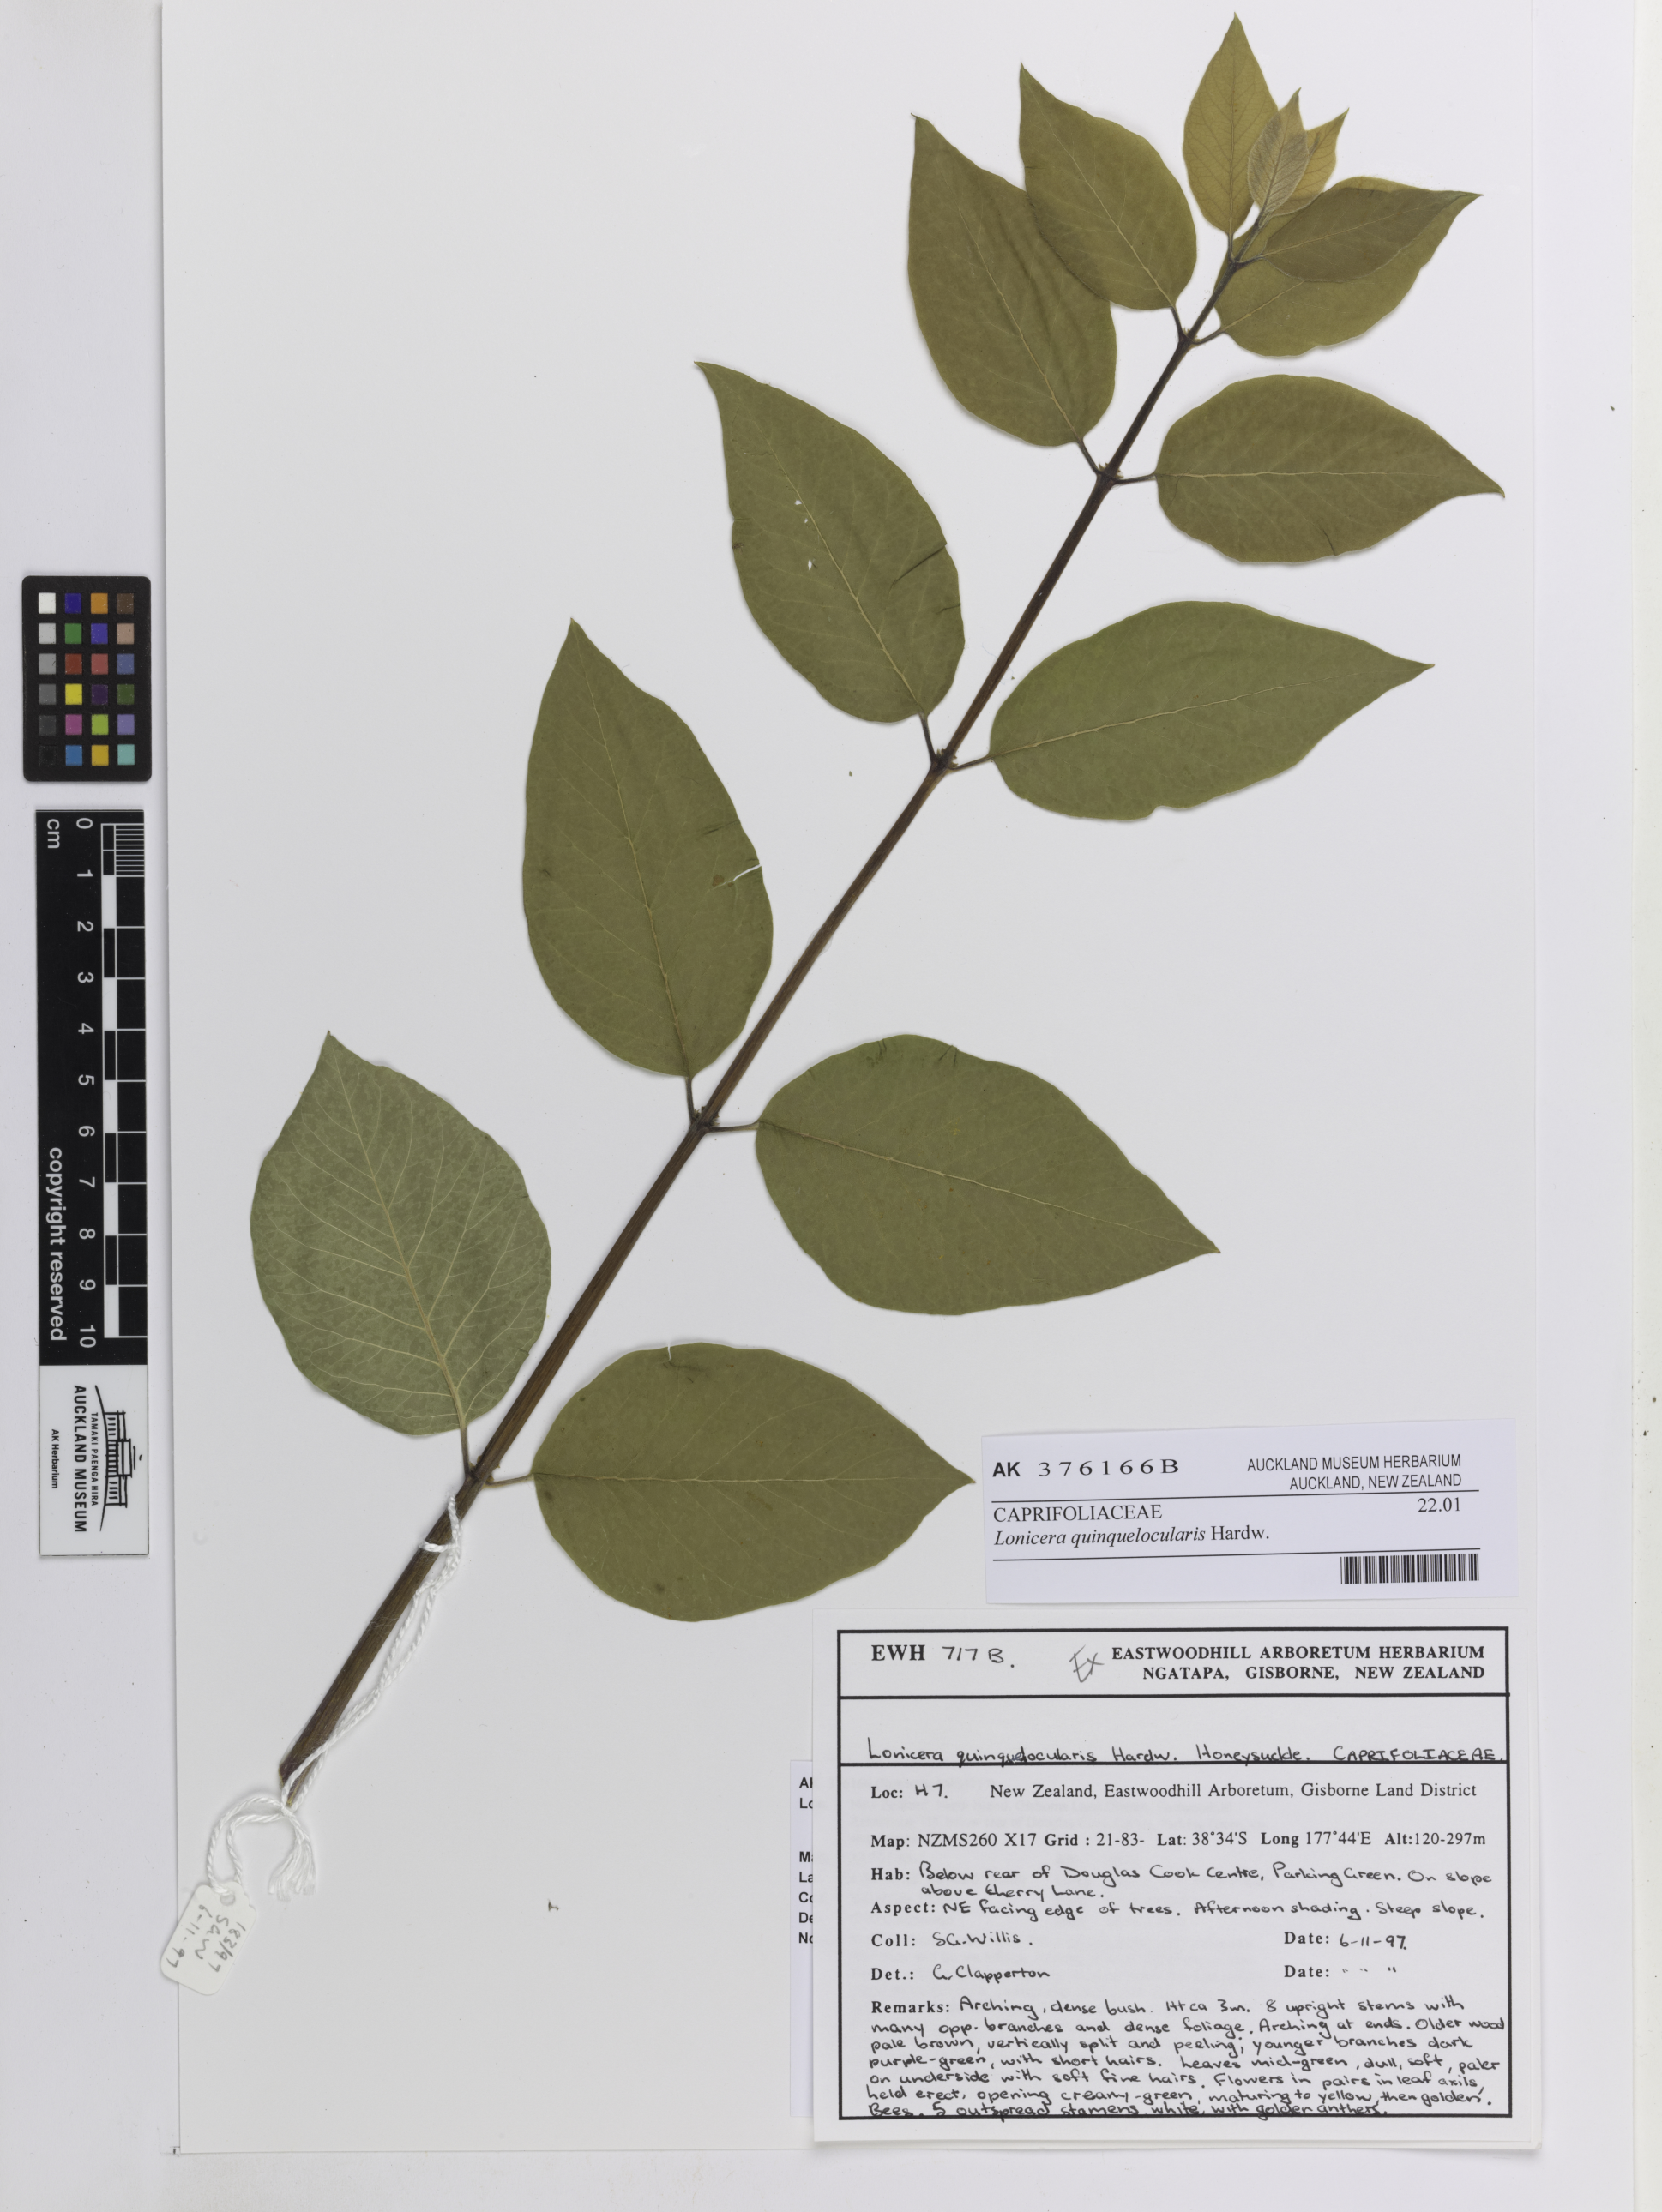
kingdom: Plantae
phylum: Tracheophyta
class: Magnoliopsida
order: Dipsacales
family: Caprifoliaceae
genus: Lonicera
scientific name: Lonicera quinquelocularis
